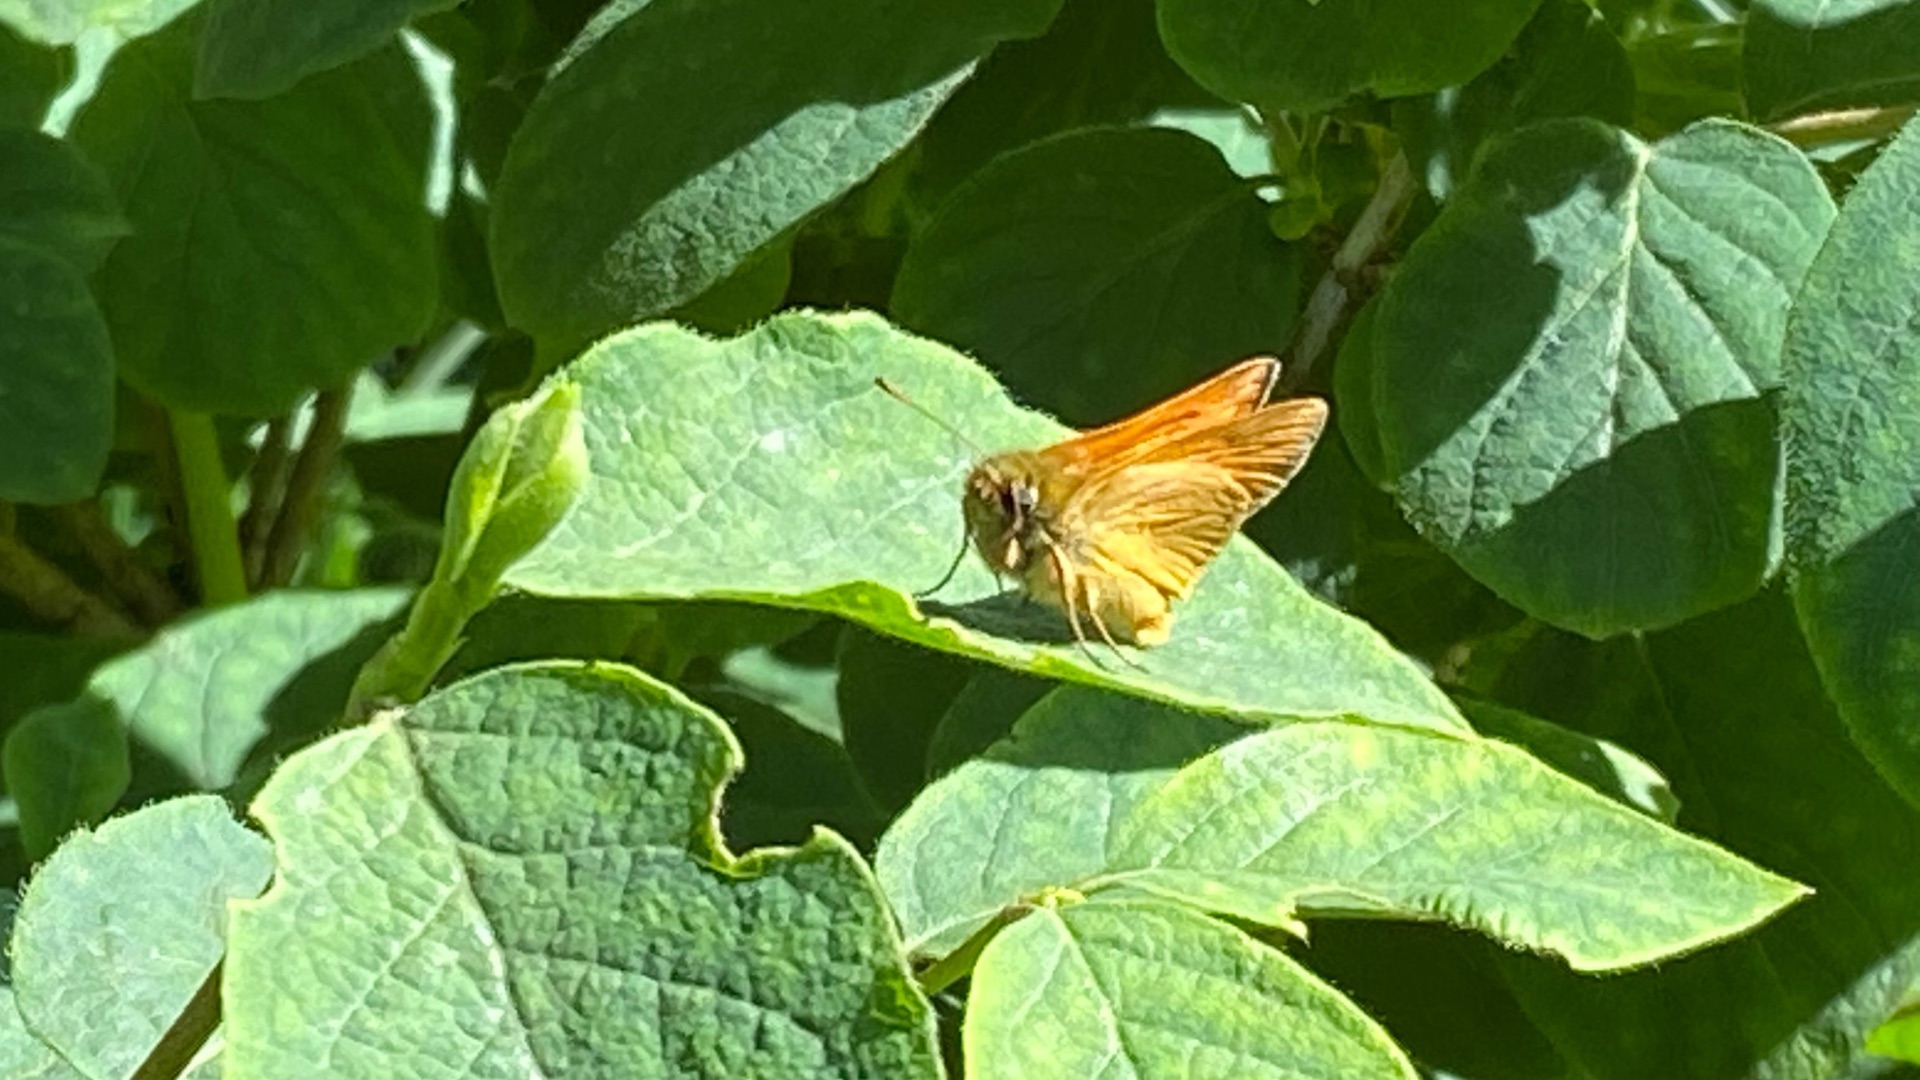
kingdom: Animalia
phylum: Arthropoda
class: Insecta
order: Lepidoptera
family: Hesperiidae
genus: Ochlodes
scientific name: Ochlodes venata
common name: Stor bredpande
